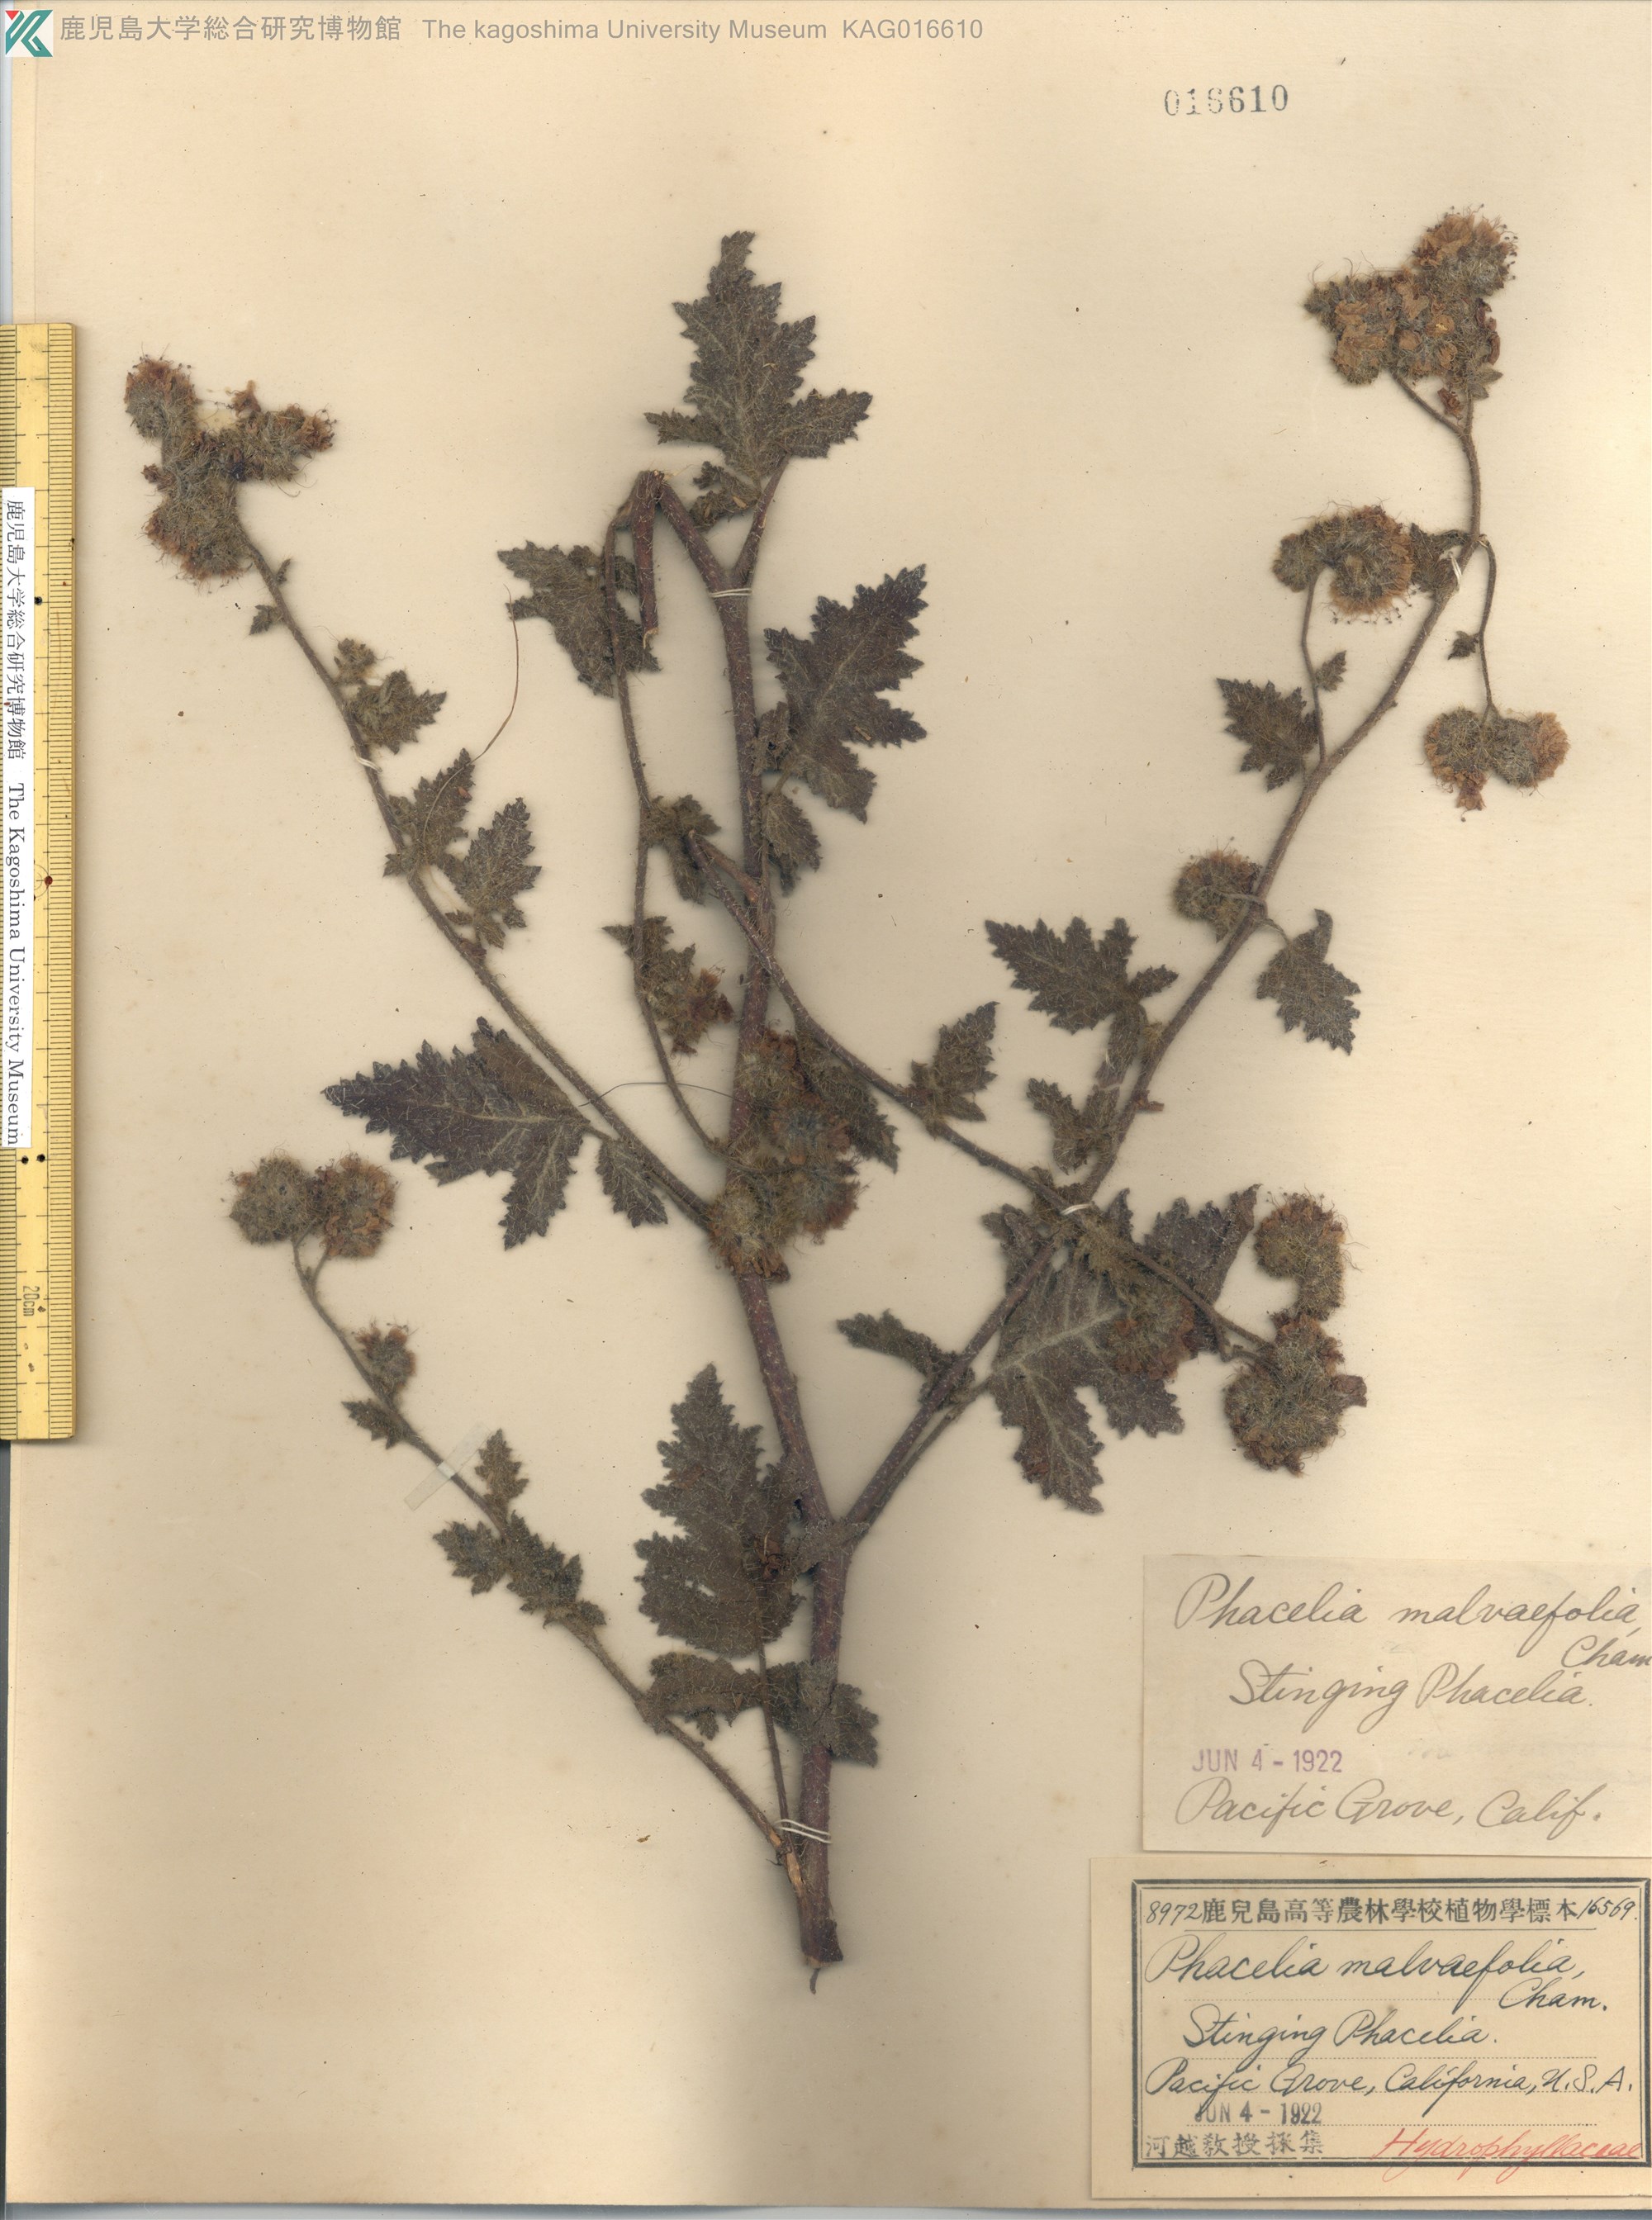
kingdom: Plantae
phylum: Tracheophyta
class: Magnoliopsida
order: Boraginales
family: Hydrophyllaceae
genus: Phacelia
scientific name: Phacelia malvifolia
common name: Mallow-leaf phacelia
